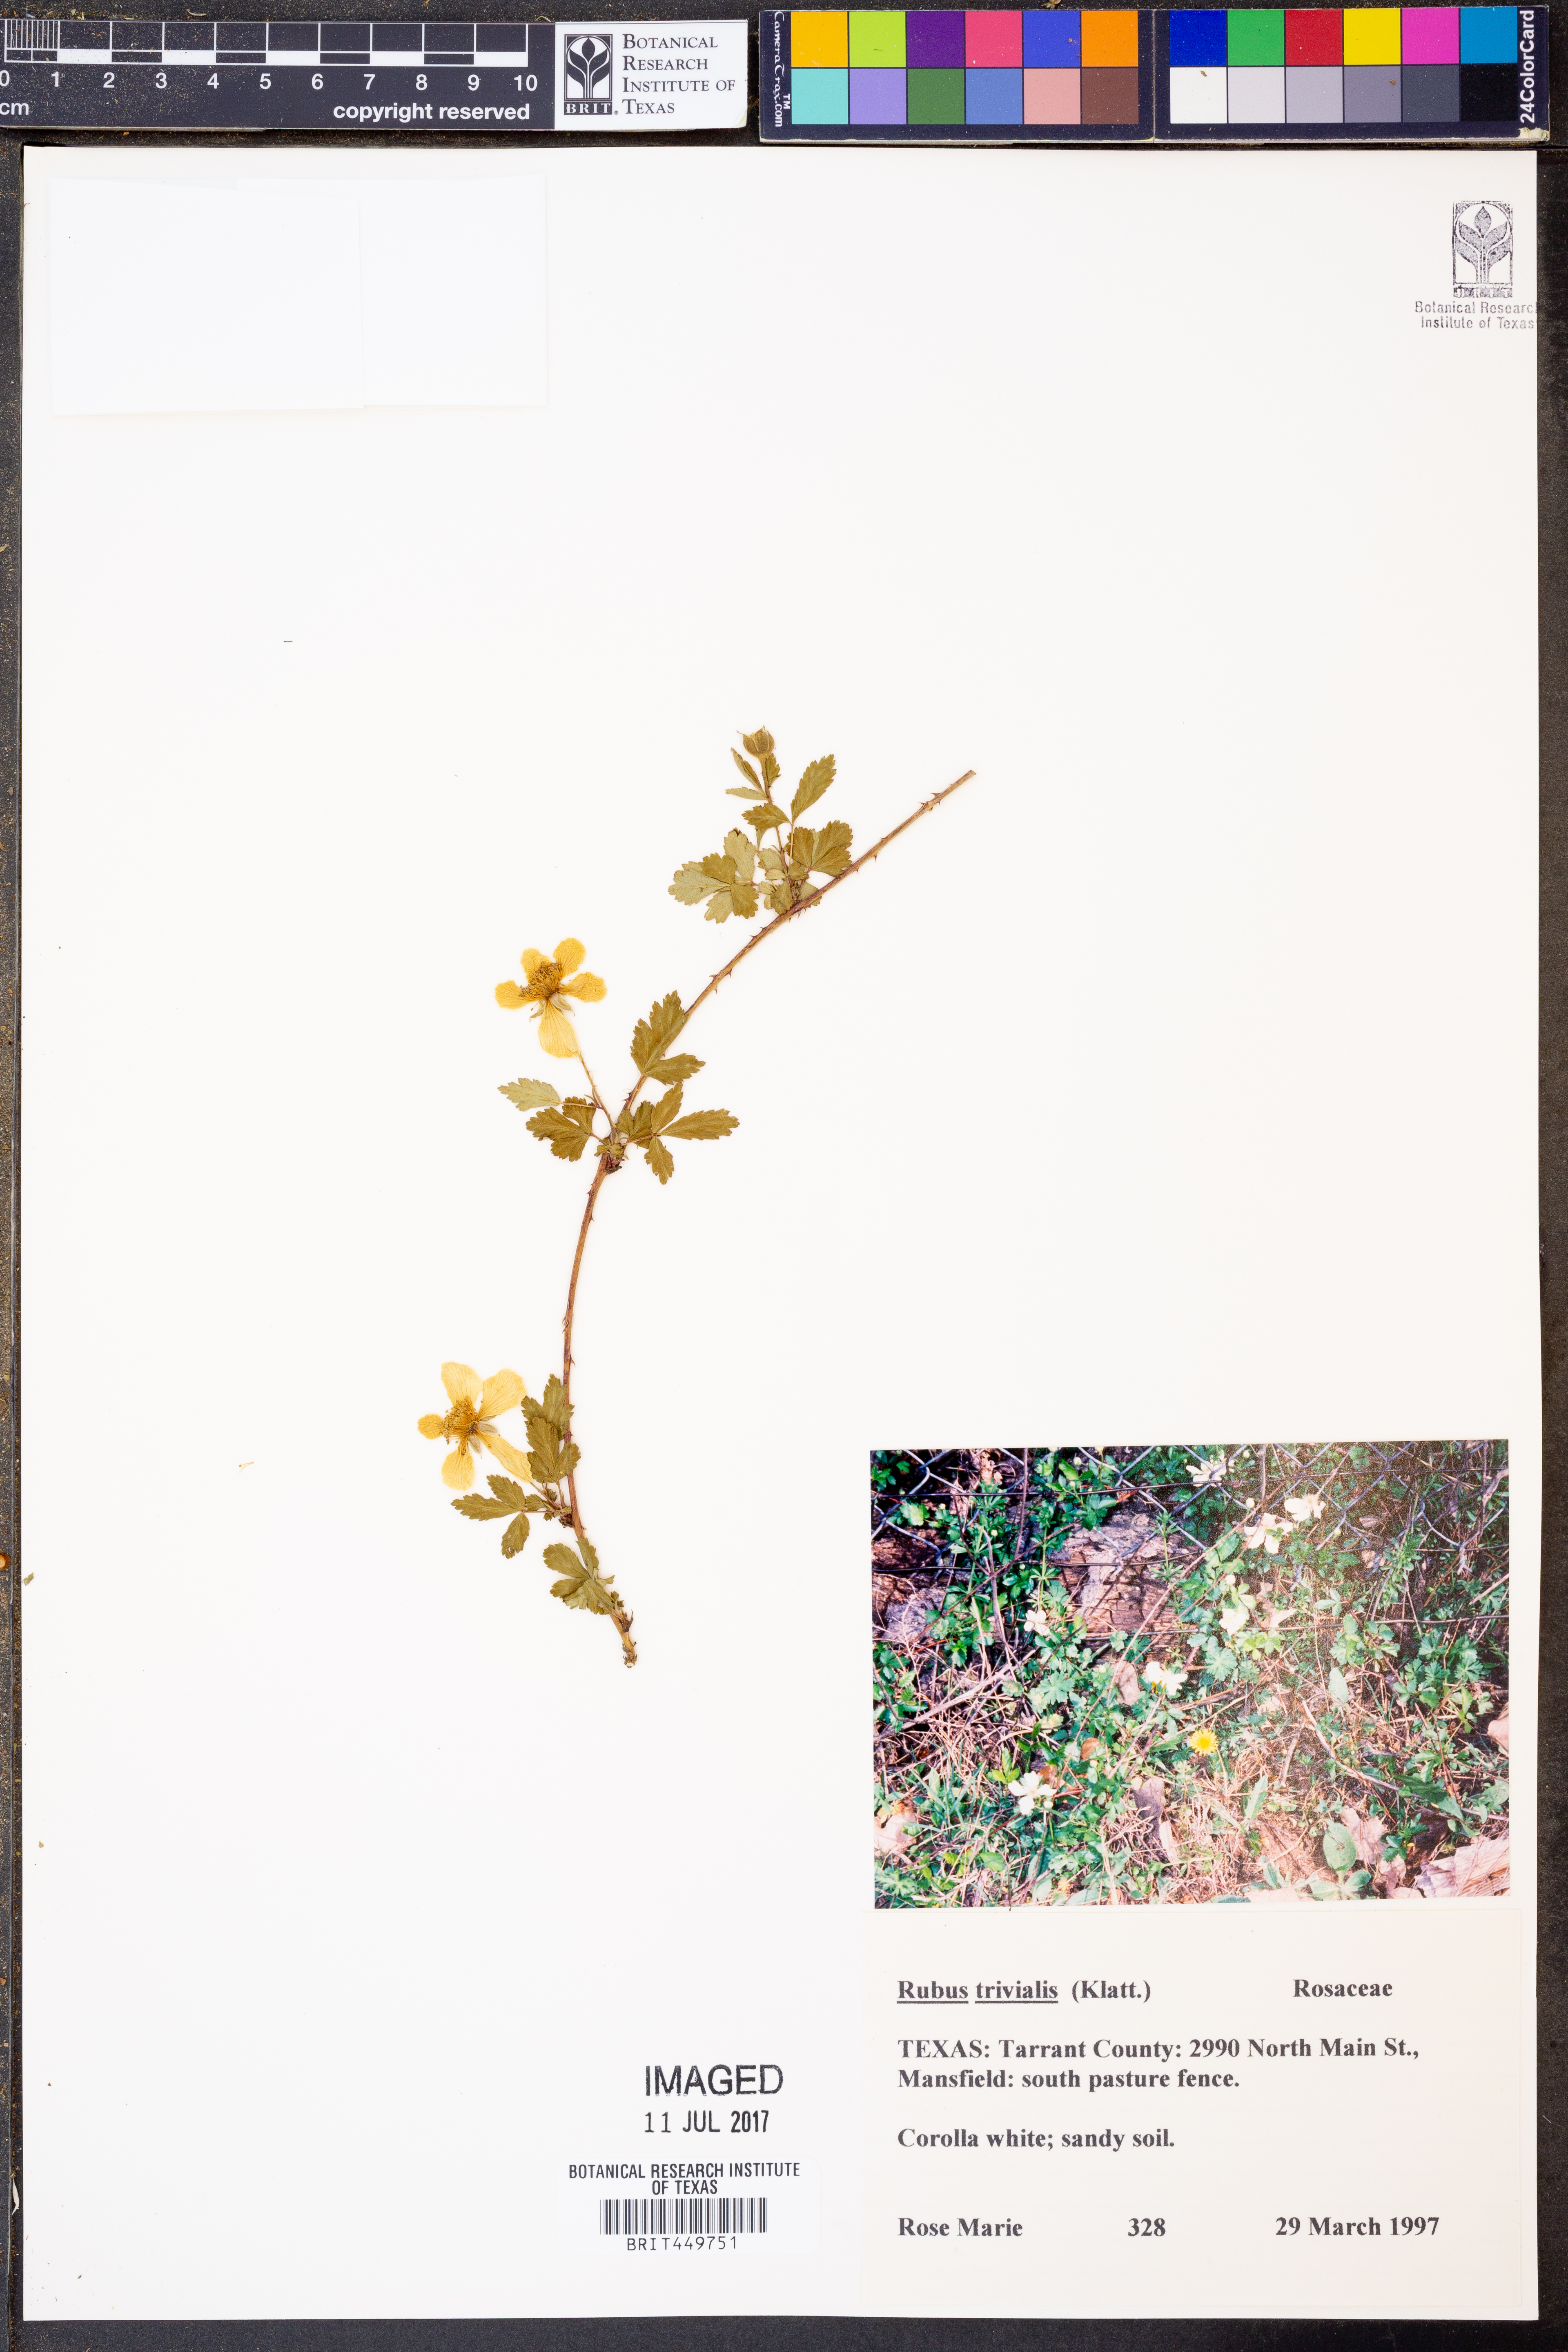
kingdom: Plantae
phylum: Tracheophyta
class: Magnoliopsida
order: Rosales
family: Rosaceae
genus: Rubus
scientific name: Rubus trivialis
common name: Southern dewberry
